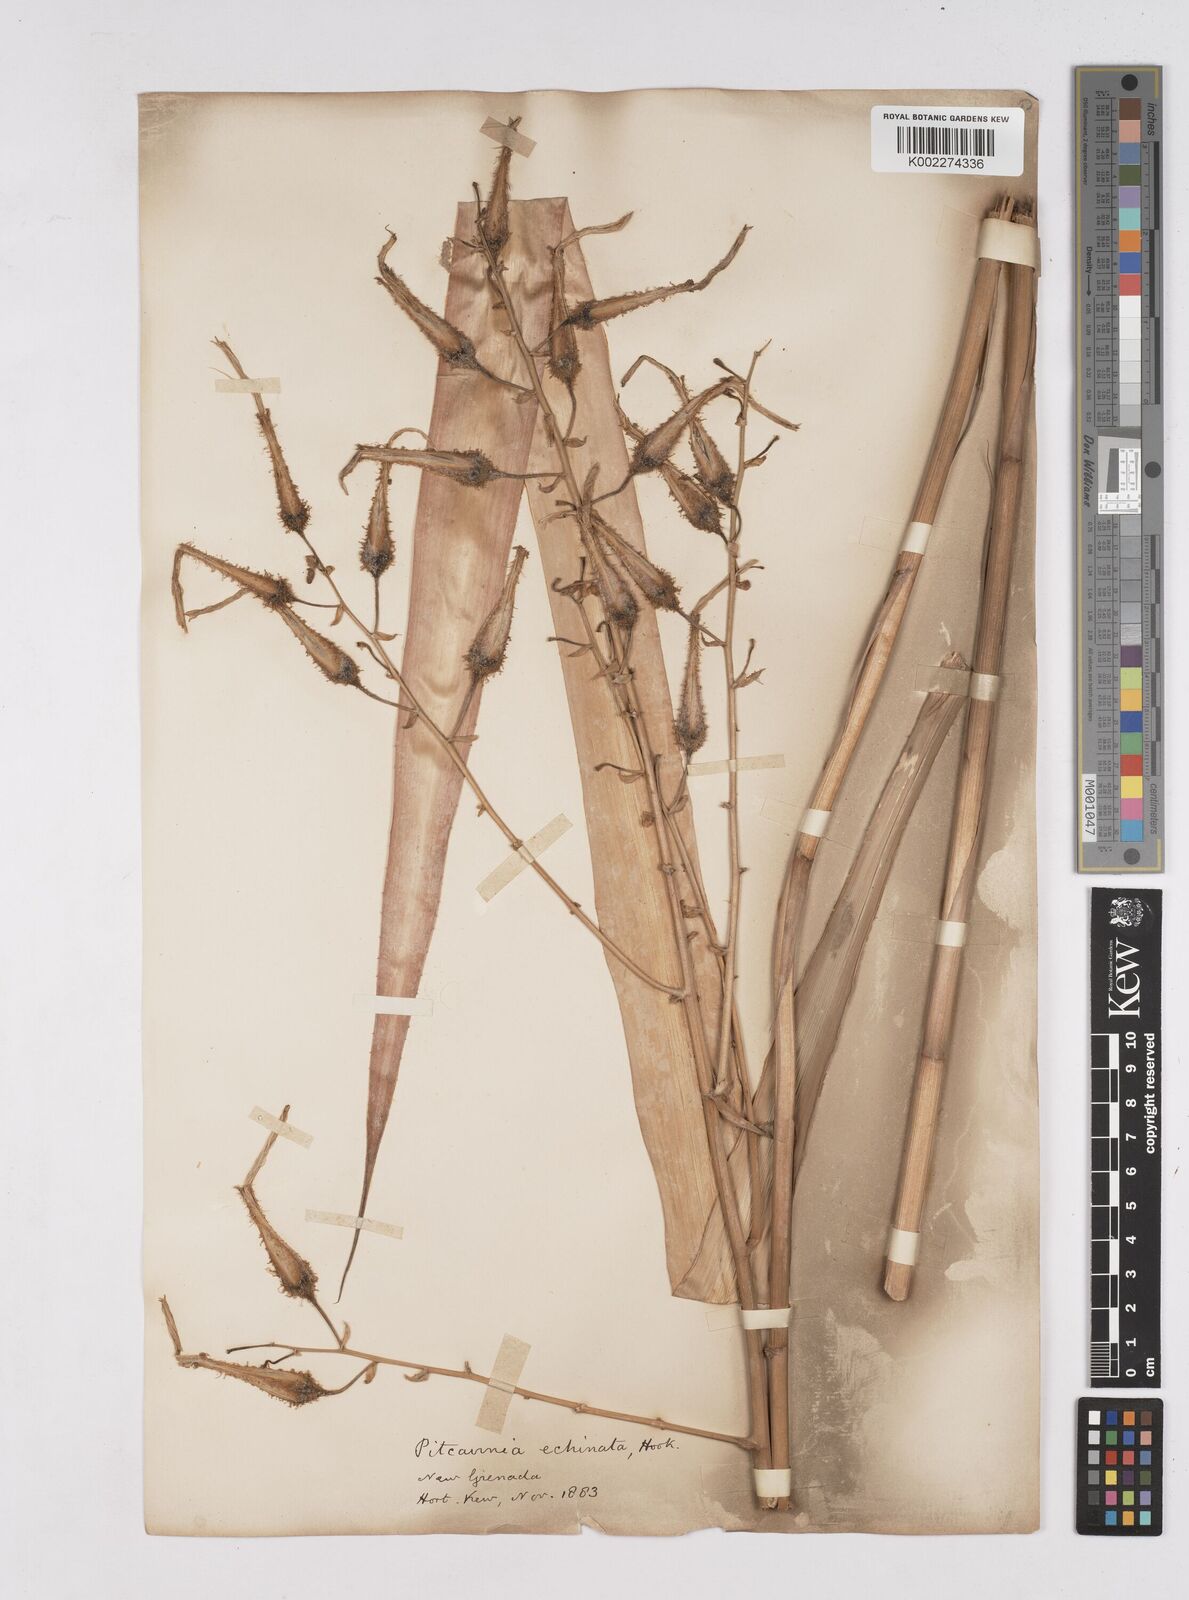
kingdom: Plantae
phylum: Tracheophyta
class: Liliopsida
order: Poales
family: Bromeliaceae
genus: Pitcairnia
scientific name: Pitcairnia echinata
